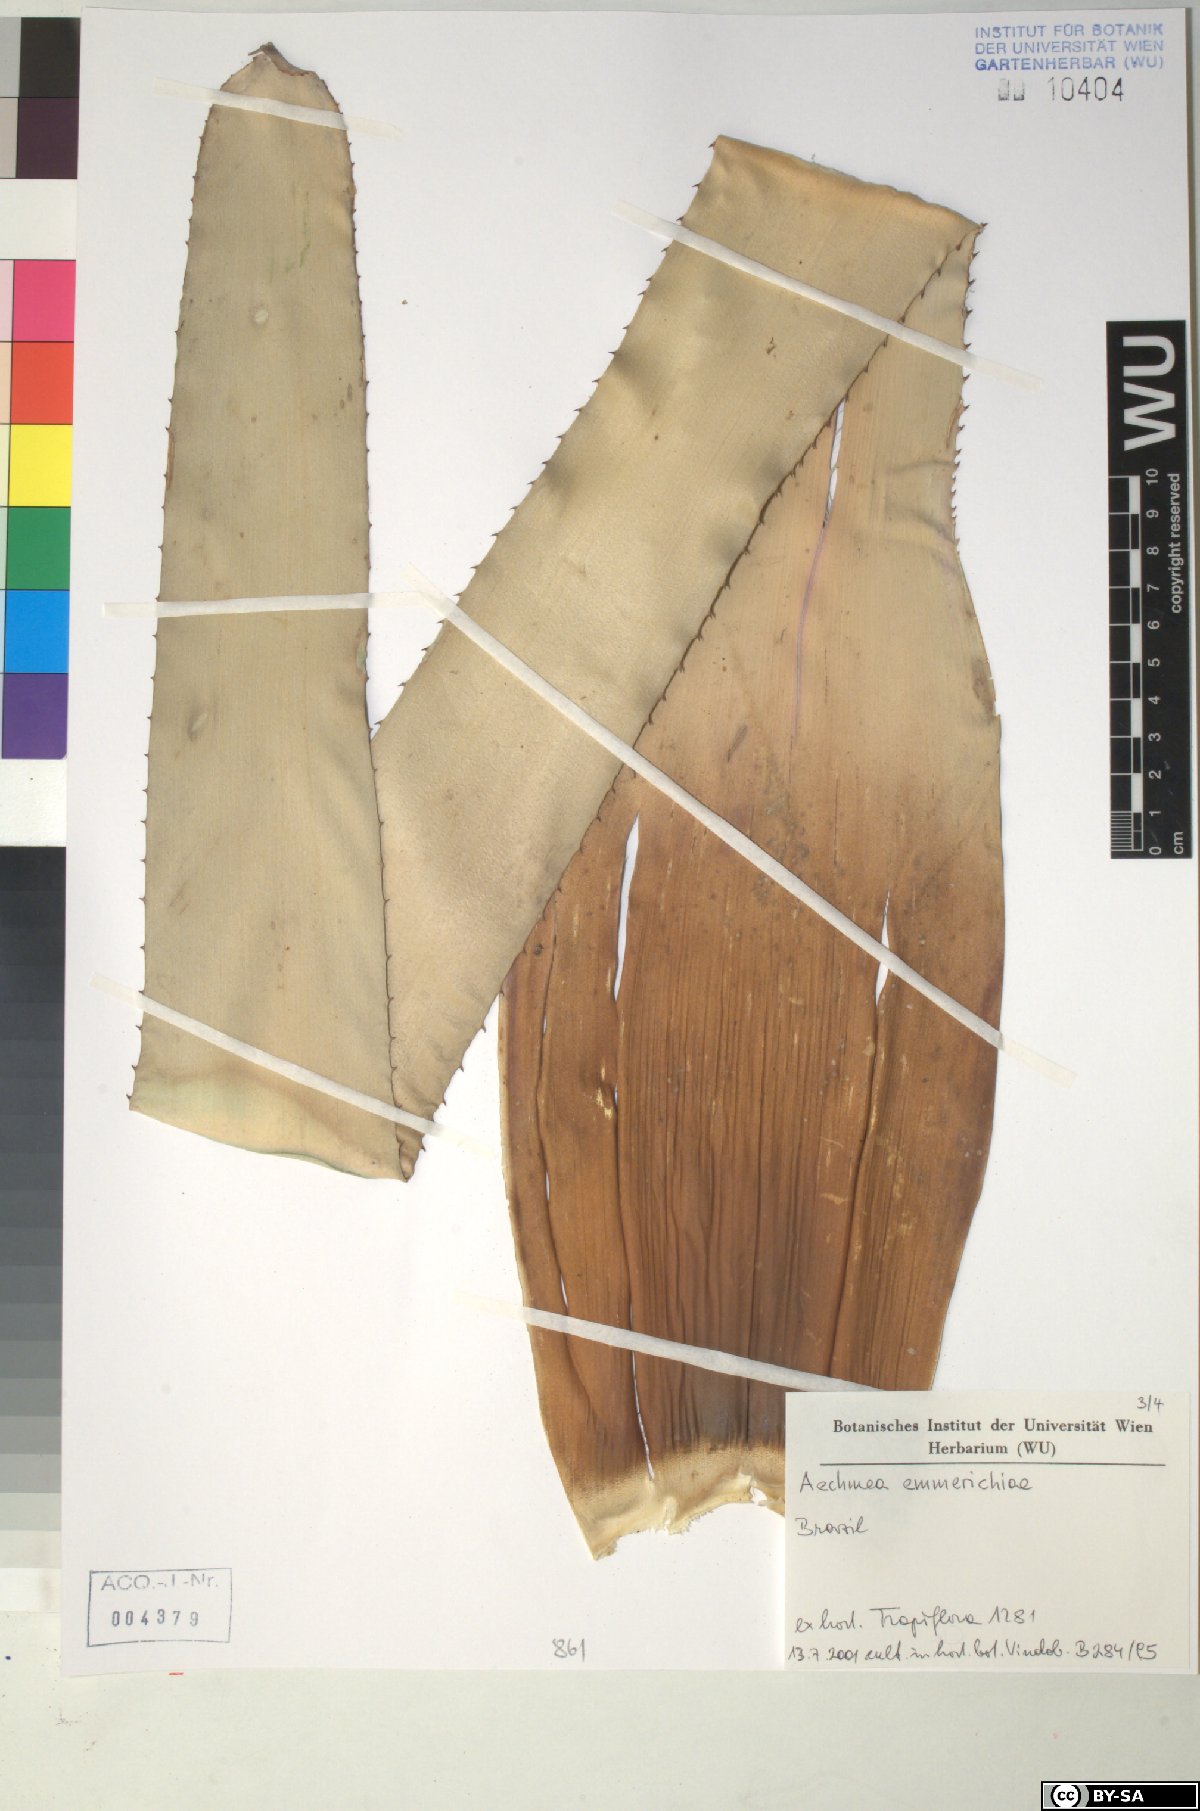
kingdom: Plantae
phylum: Tracheophyta
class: Liliopsida
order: Poales
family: Bromeliaceae
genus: Aechmea
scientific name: Aechmea emmerichiae
